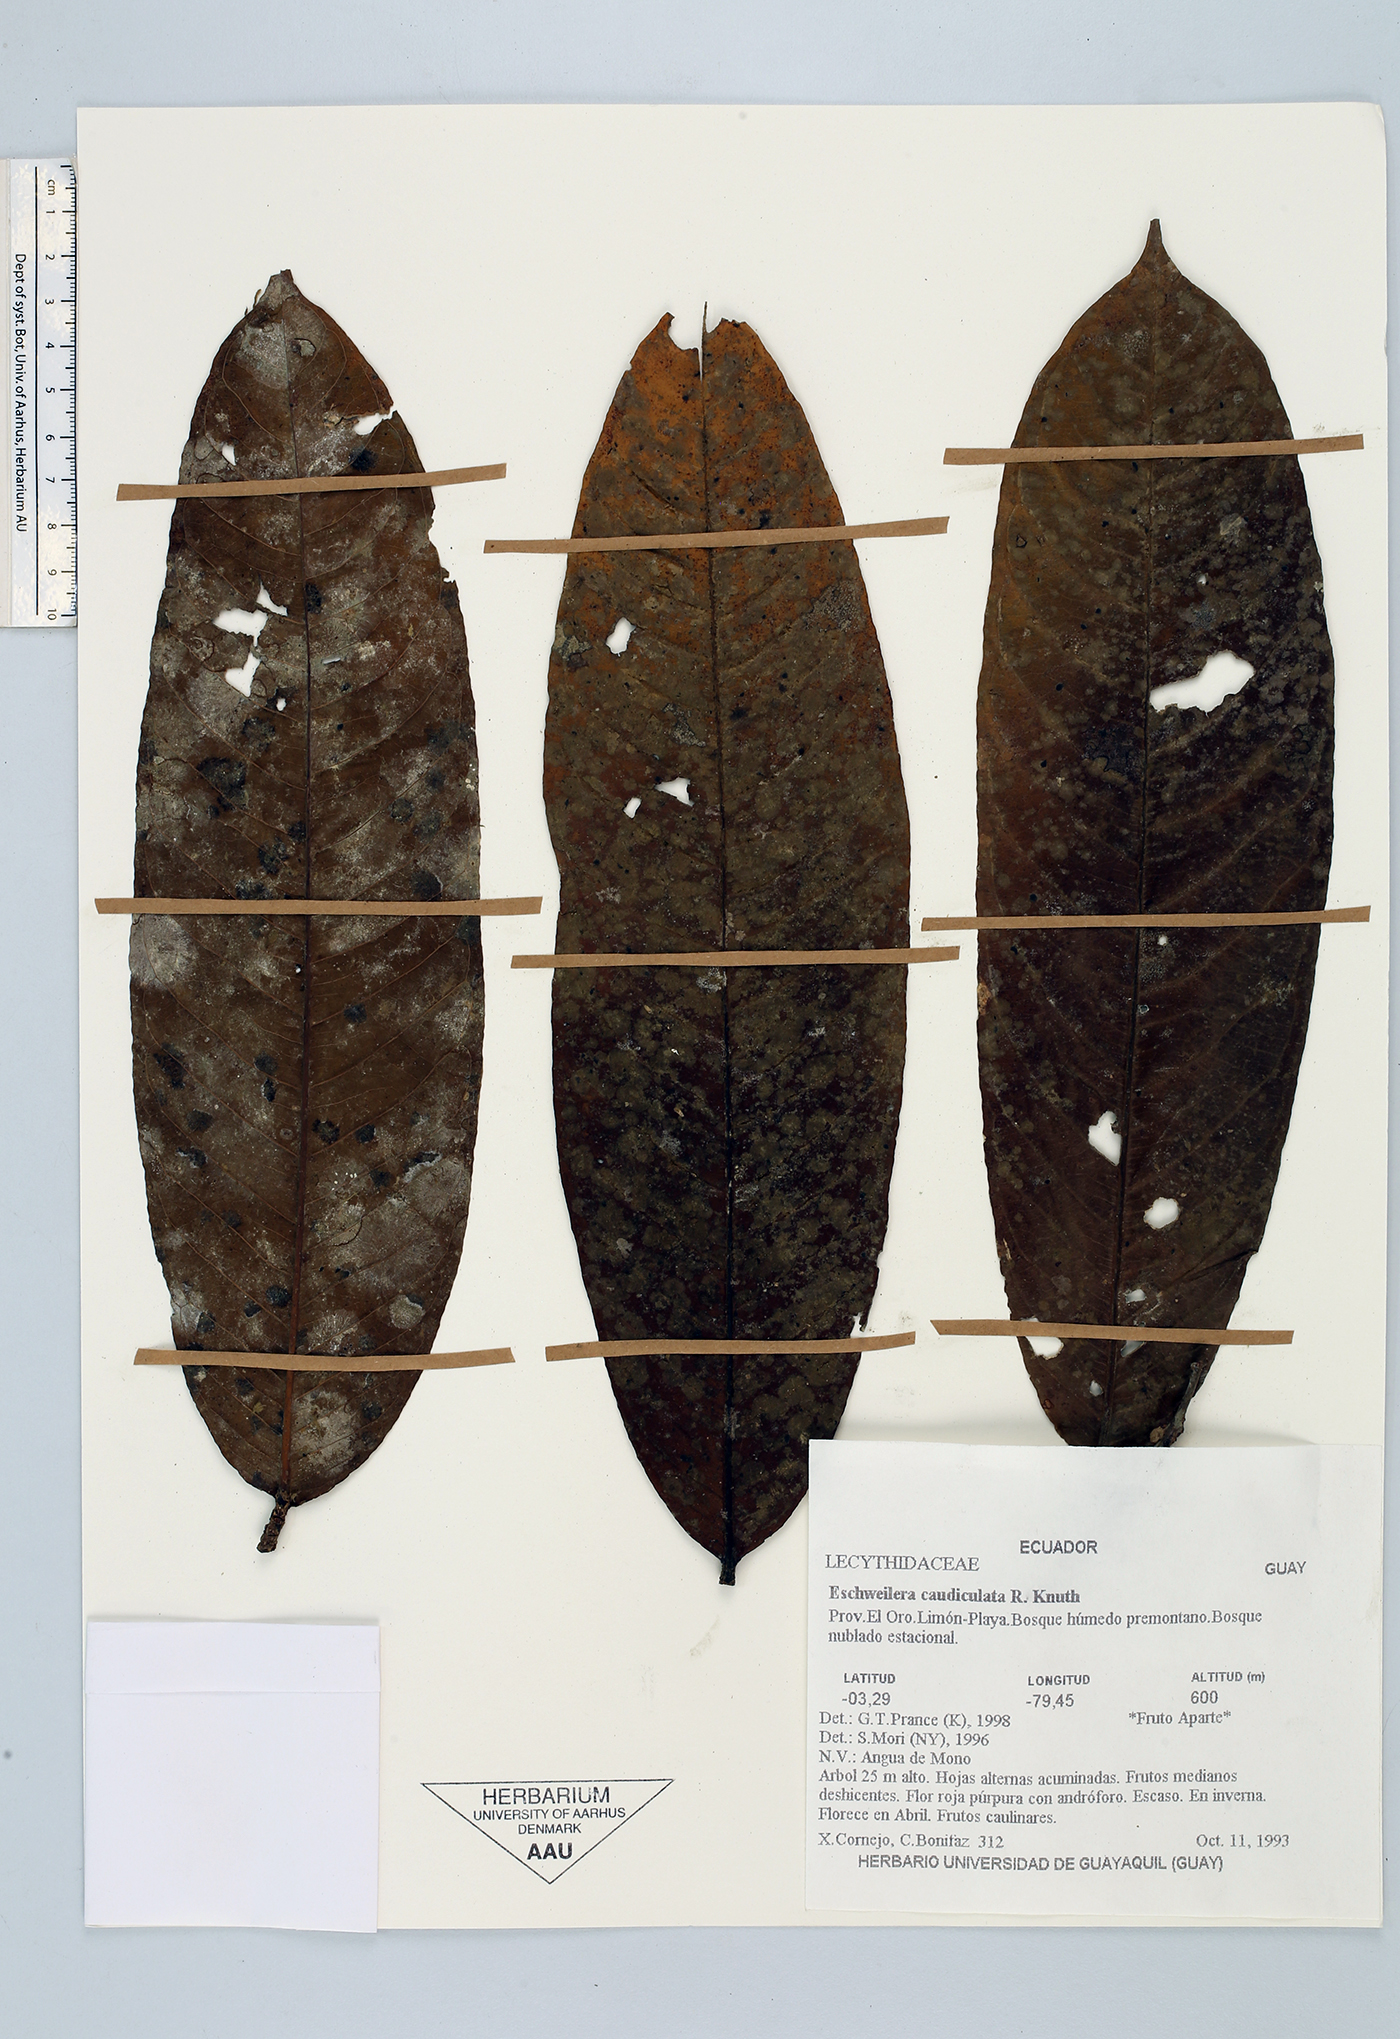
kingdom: Plantae
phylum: Tracheophyta
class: Magnoliopsida
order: Ericales
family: Lecythidaceae
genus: Eschweilera
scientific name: Eschweilera caudiculata
